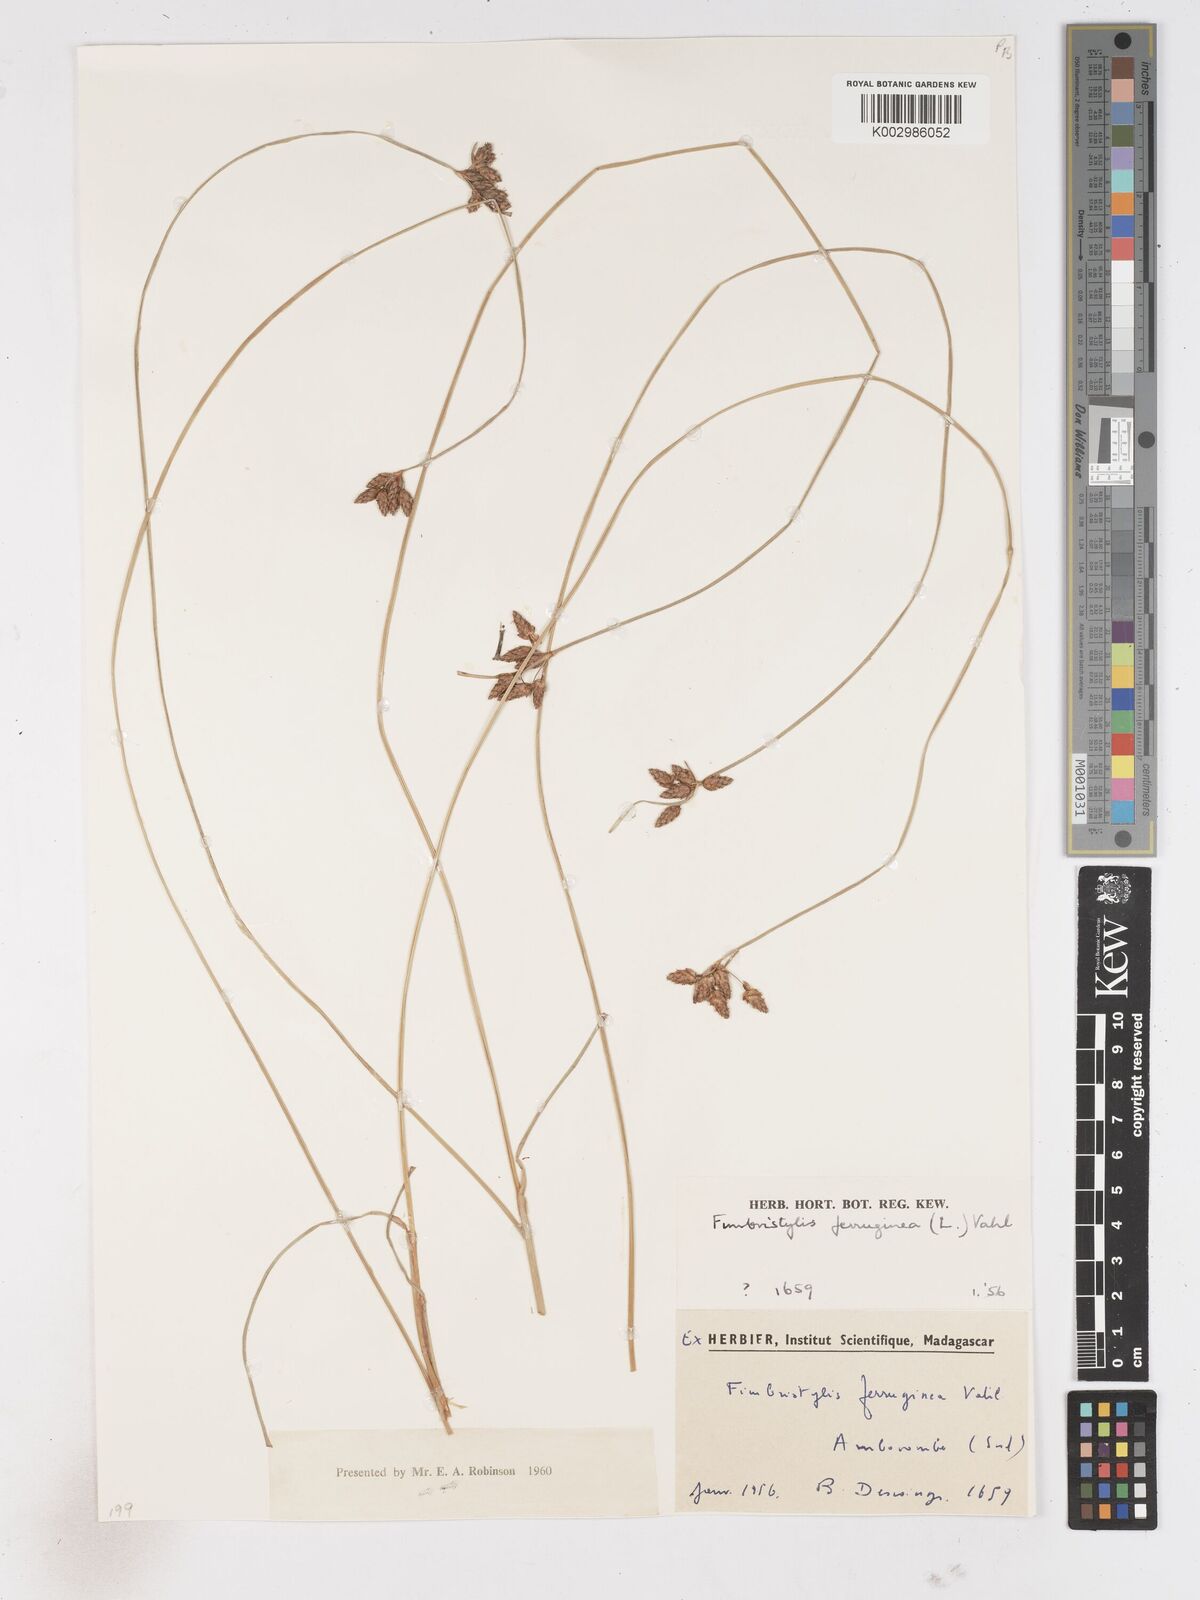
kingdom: Plantae
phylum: Tracheophyta
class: Liliopsida
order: Poales
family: Cyperaceae
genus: Fimbristylis
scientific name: Fimbristylis
